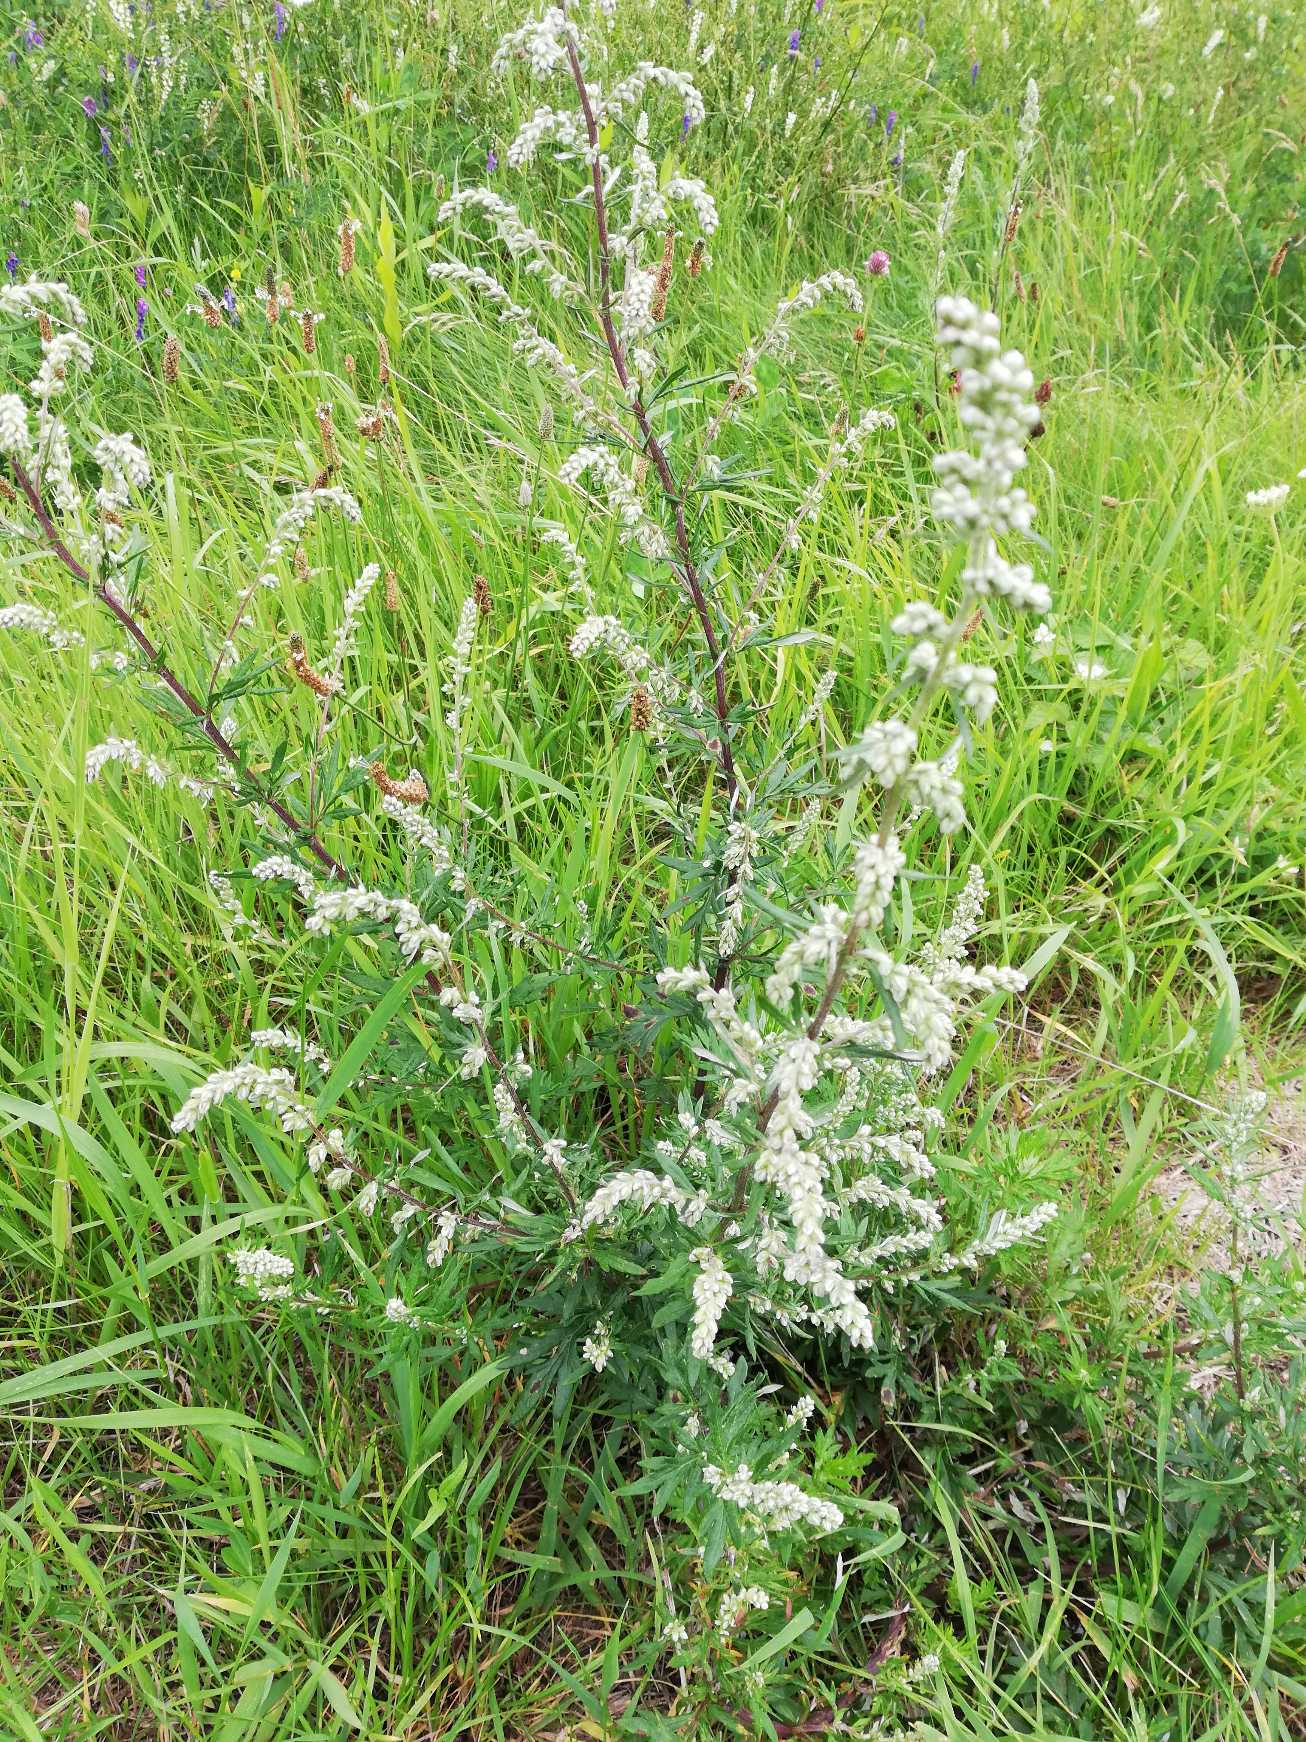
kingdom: Plantae
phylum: Tracheophyta
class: Magnoliopsida
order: Asterales
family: Asteraceae
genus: Artemisia
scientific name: Artemisia vulgaris
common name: Grå-bynke
